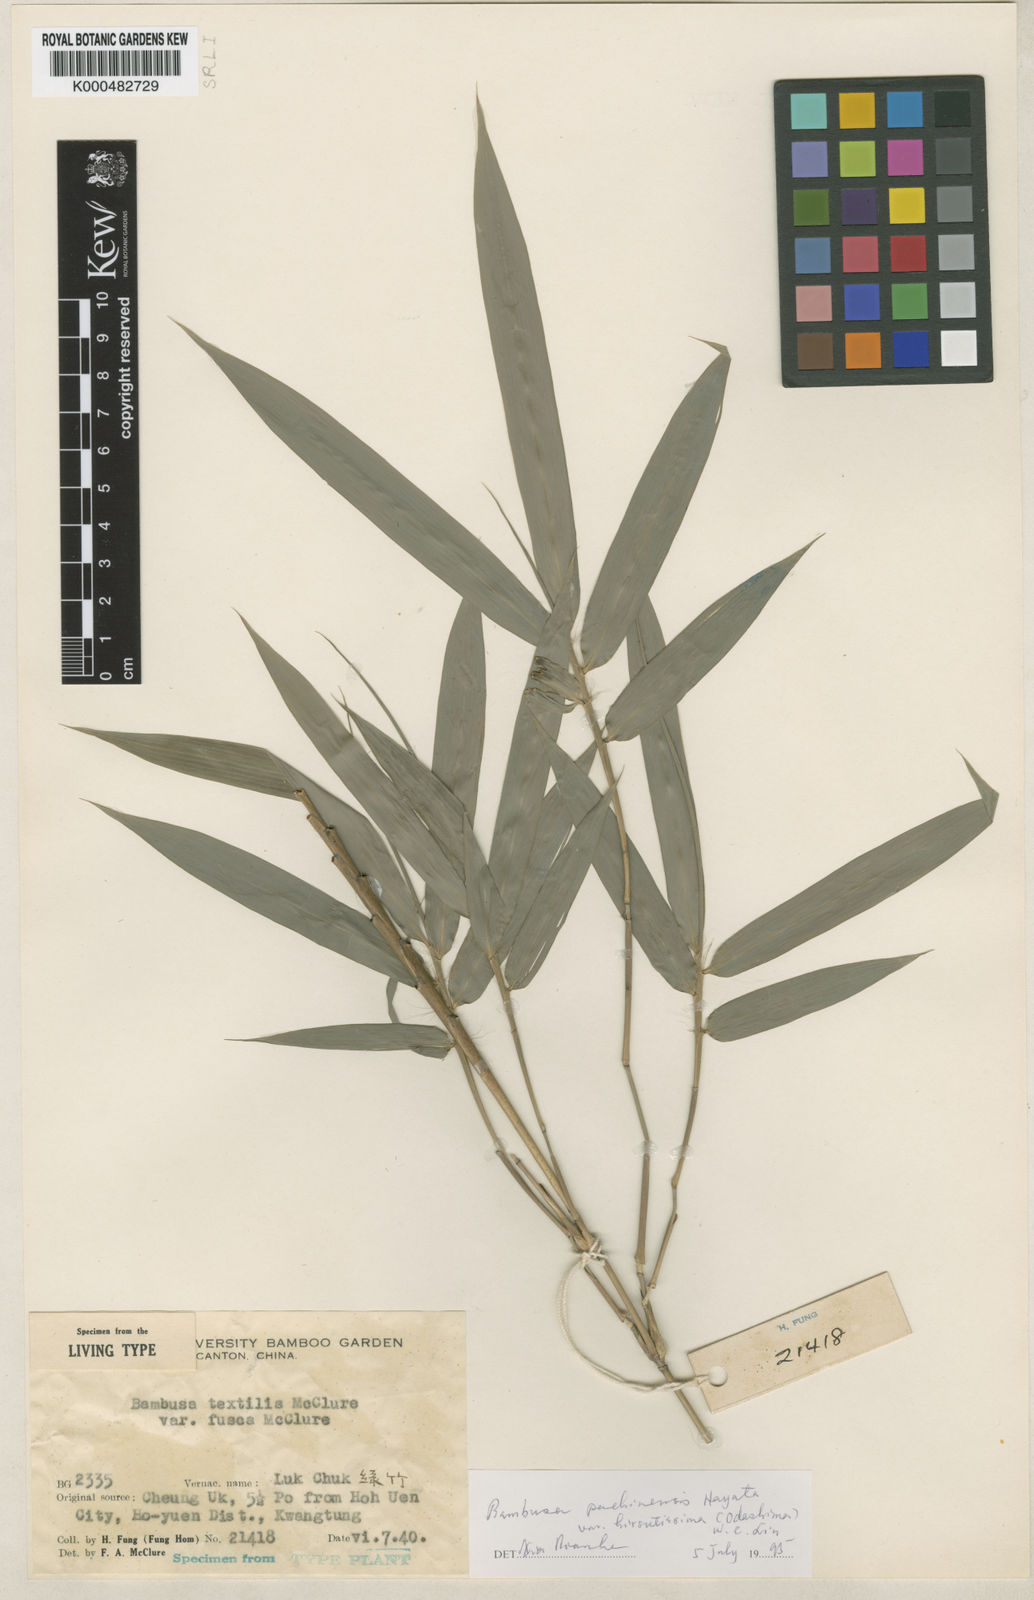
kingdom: Plantae
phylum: Tracheophyta
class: Liliopsida
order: Poales
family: Poaceae
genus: Bambusa
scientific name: Bambusa pachinensis
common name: Pachi bamboo
